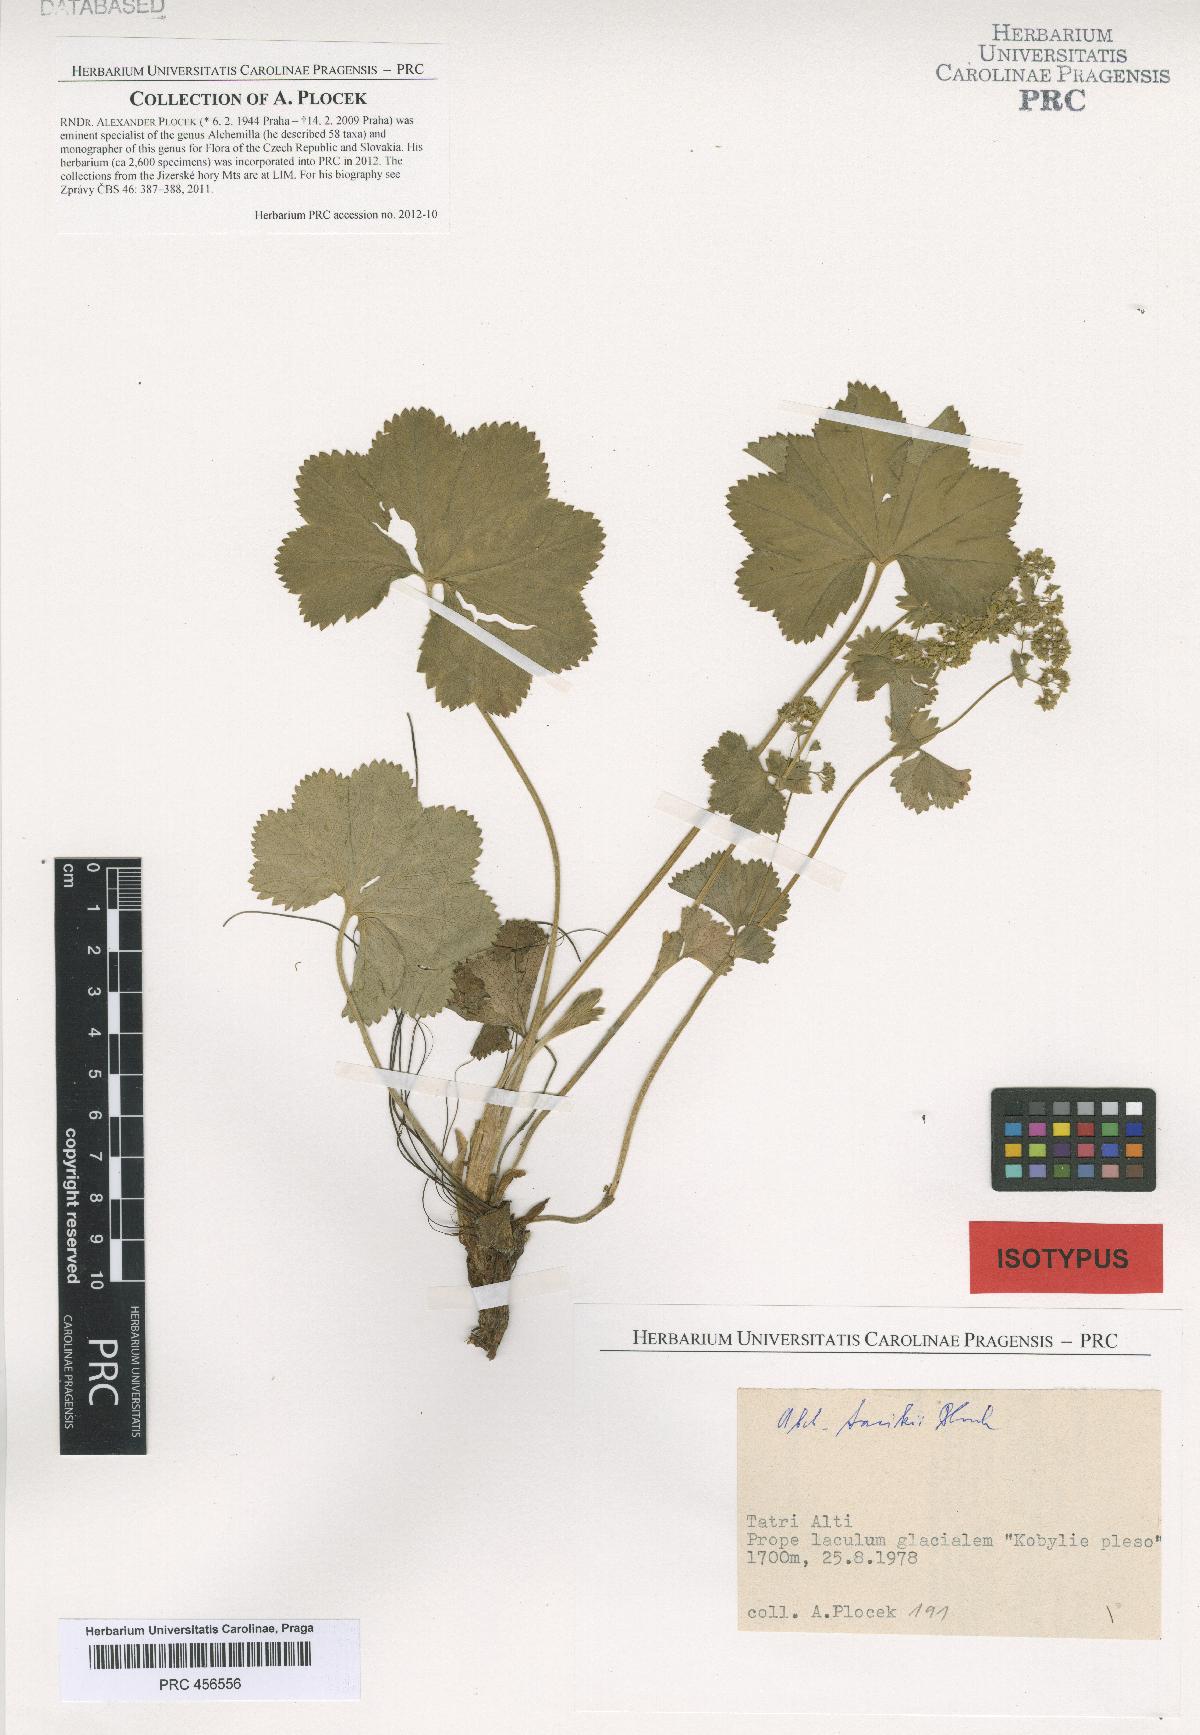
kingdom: Plantae
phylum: Tracheophyta
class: Magnoliopsida
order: Rosales
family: Rosaceae
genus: Alchemilla
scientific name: Alchemilla tacikii
